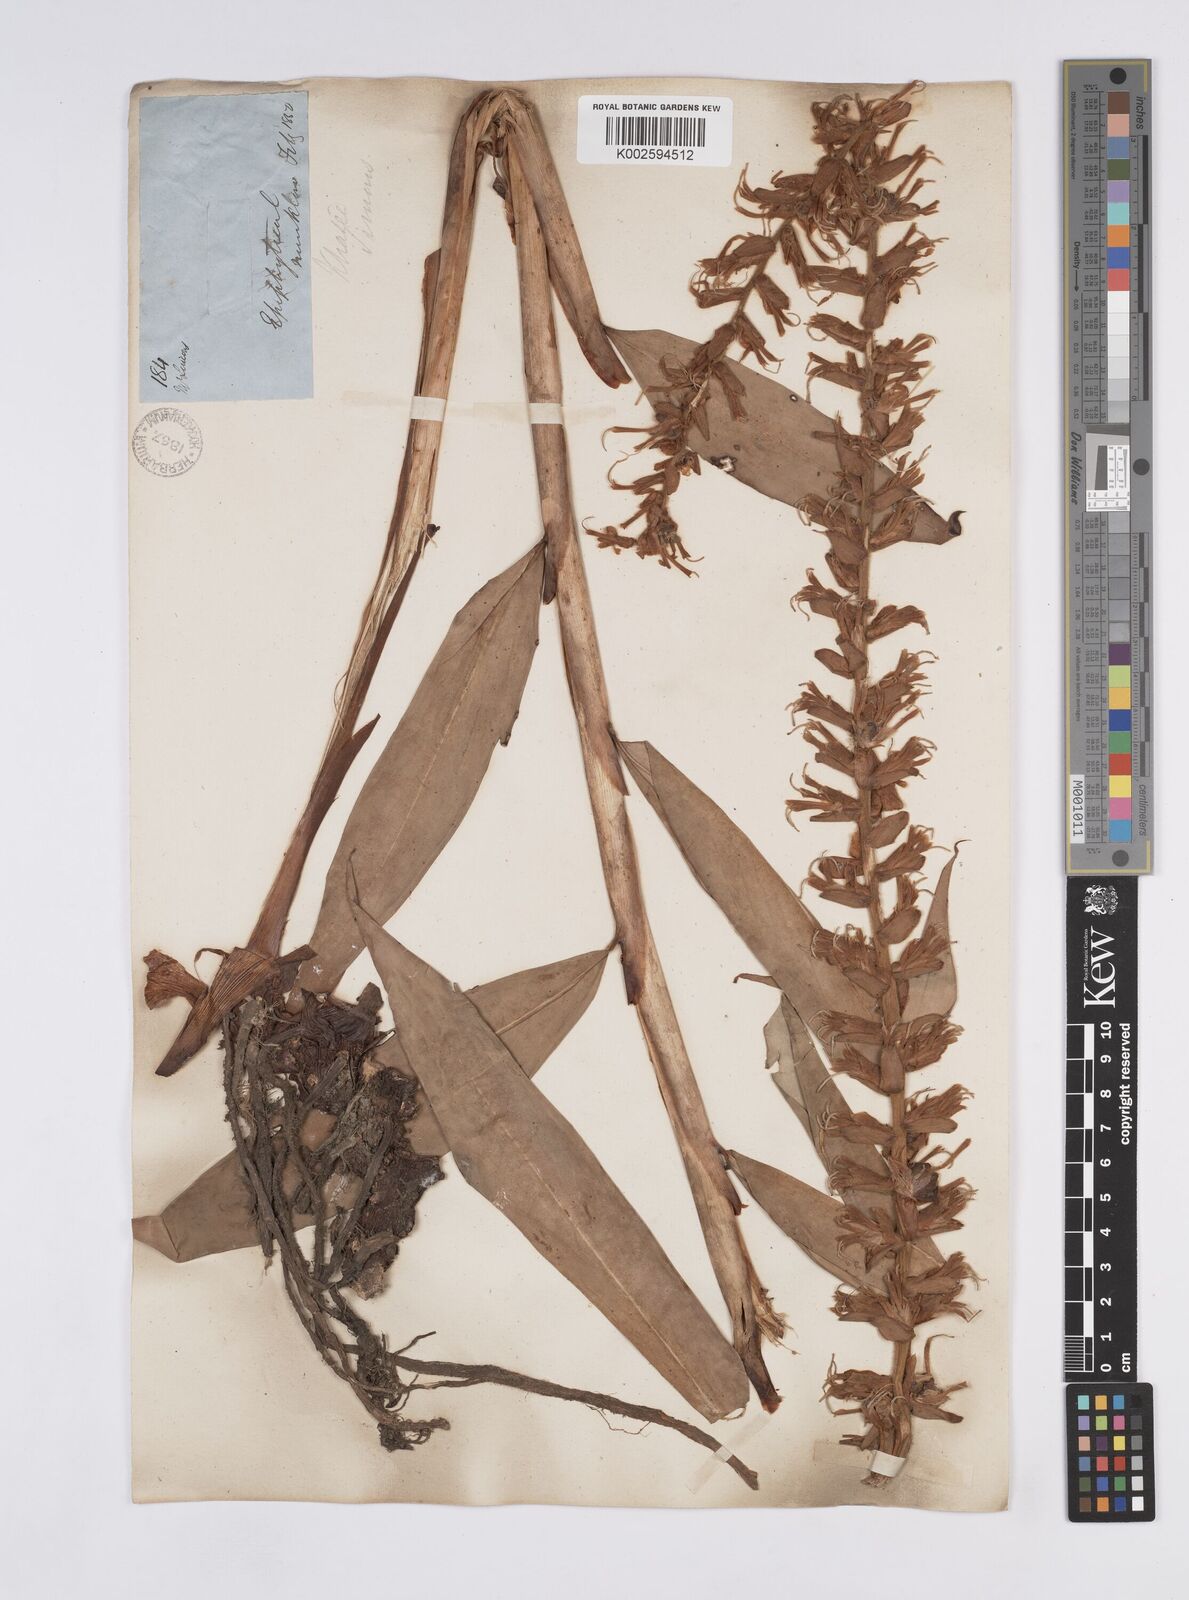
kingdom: Plantae
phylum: Tracheophyta
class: Liliopsida
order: Zingiberales
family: Zingiberaceae
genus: Hedychium
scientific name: Hedychium villosum
